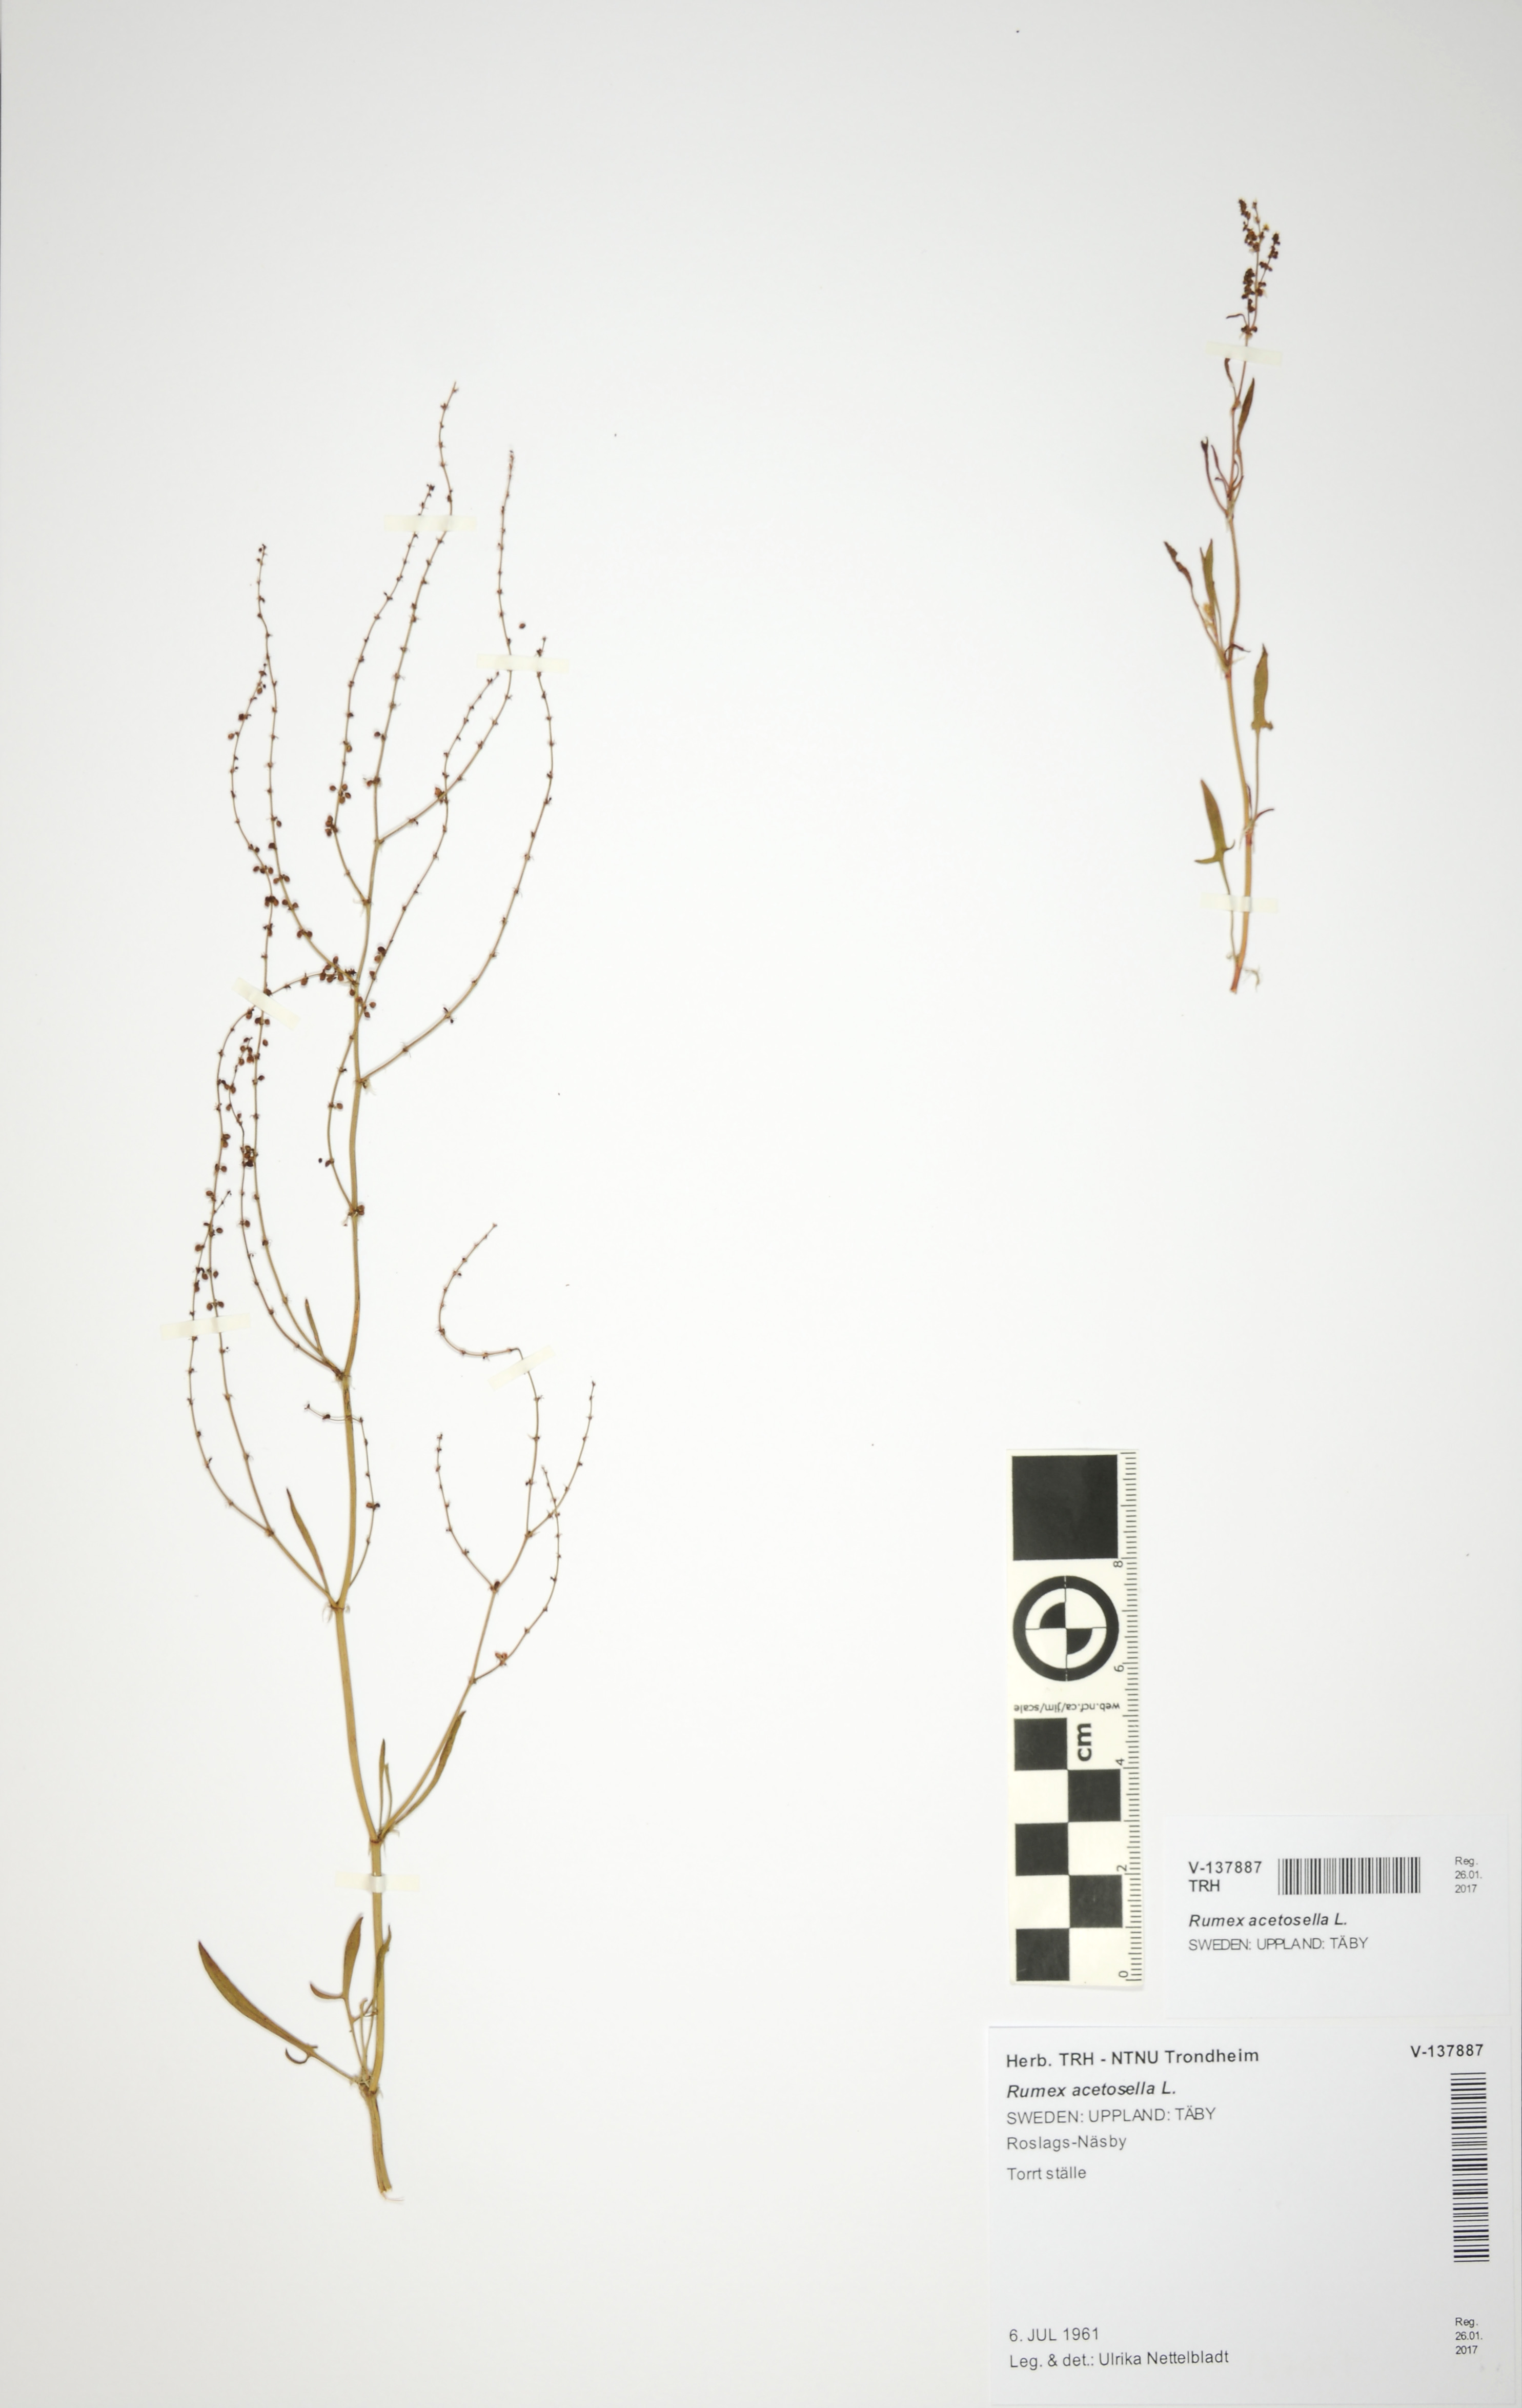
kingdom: Plantae
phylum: Tracheophyta
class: Magnoliopsida
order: Caryophyllales
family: Polygonaceae
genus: Rumex
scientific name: Rumex acetosella
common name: Common sheep sorrel
